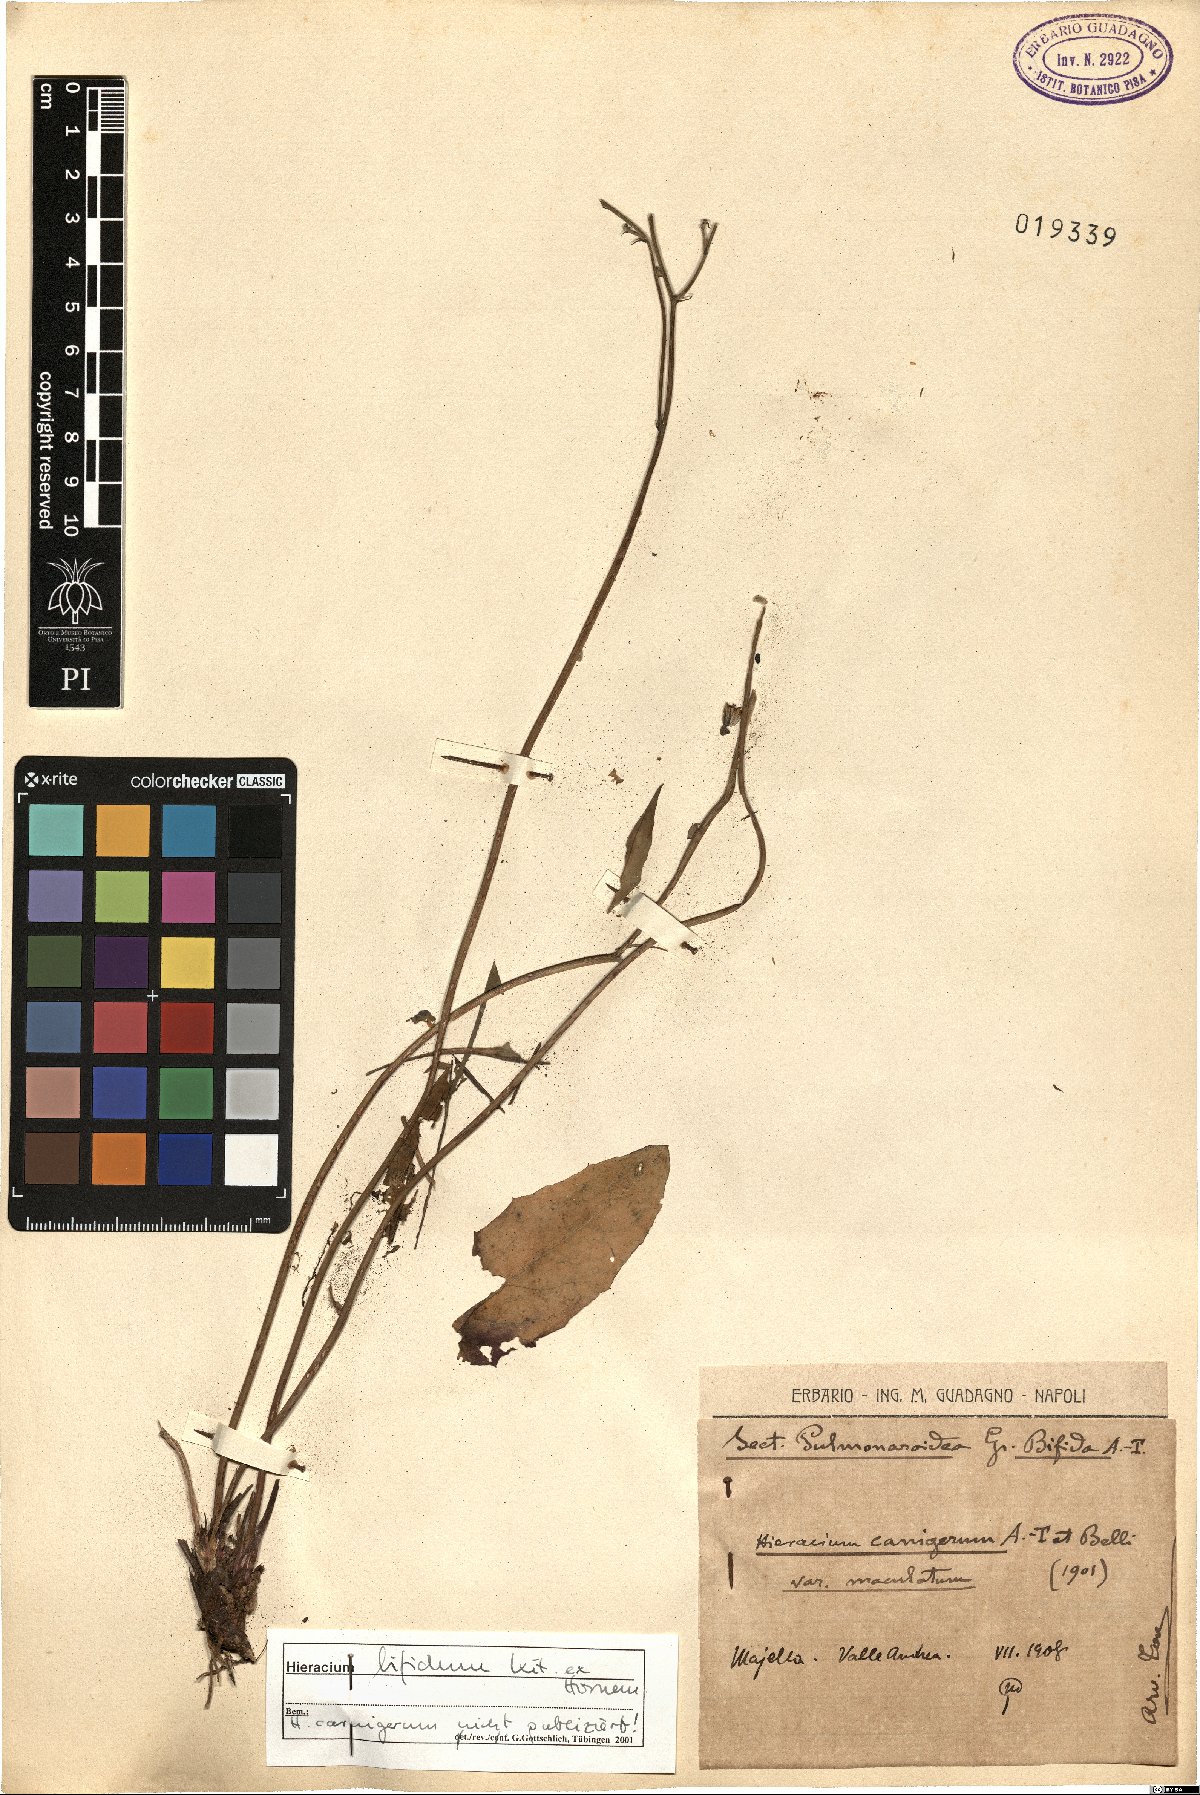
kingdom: Plantae
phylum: Tracheophyta
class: Magnoliopsida
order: Asterales
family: Asteraceae
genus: Hieracium
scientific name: Hieracium bifidum
